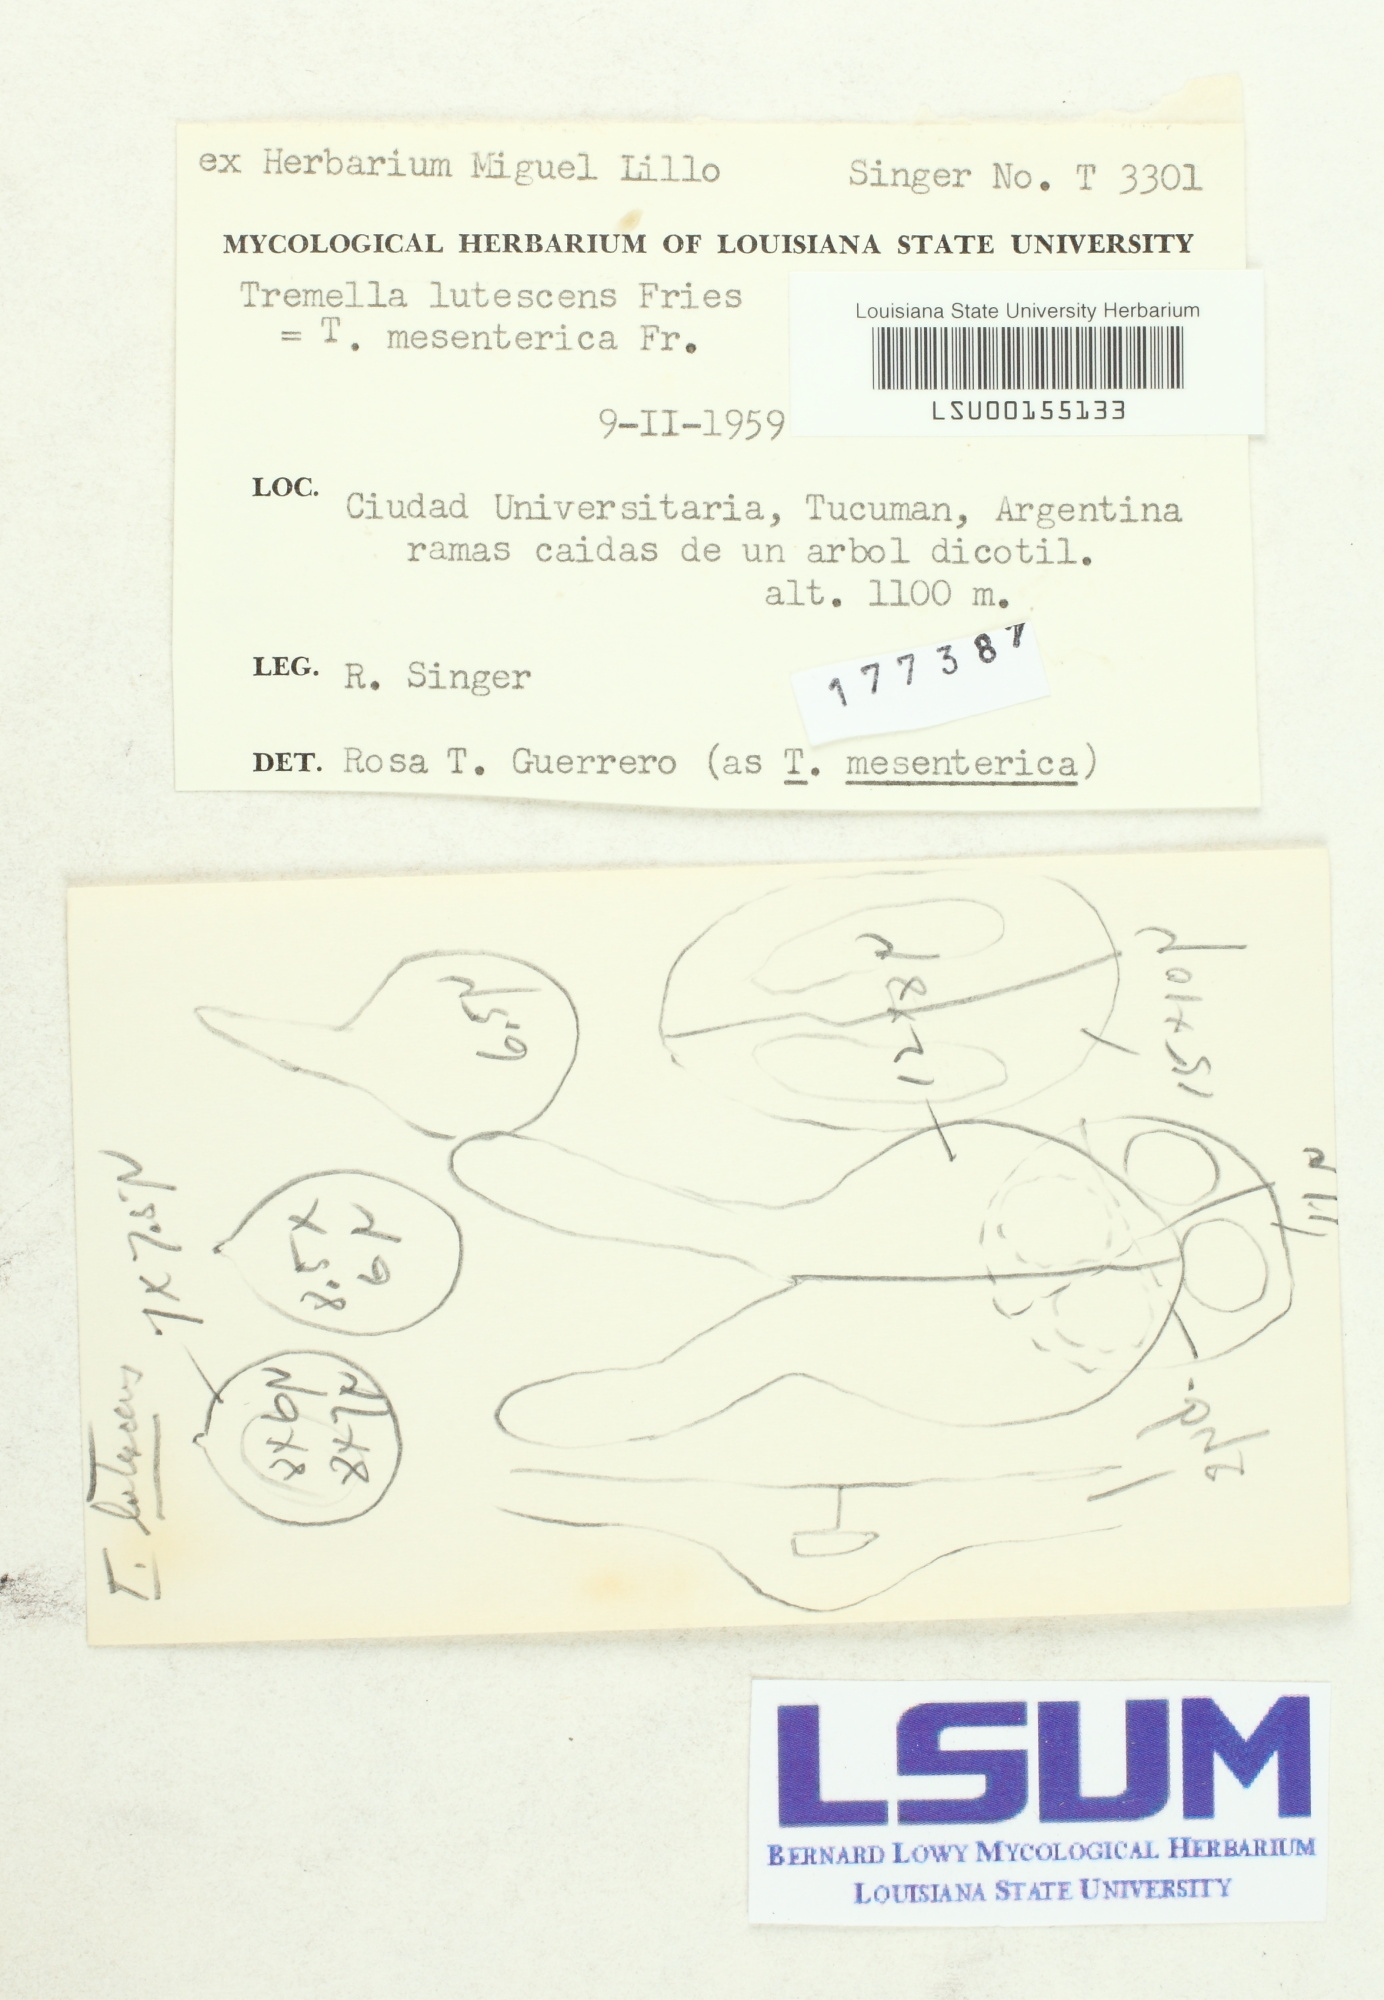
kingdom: Fungi
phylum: Basidiomycota
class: Tremellomycetes
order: Tremellales
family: Tremellaceae
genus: Tremella
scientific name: Tremella mesenterica
